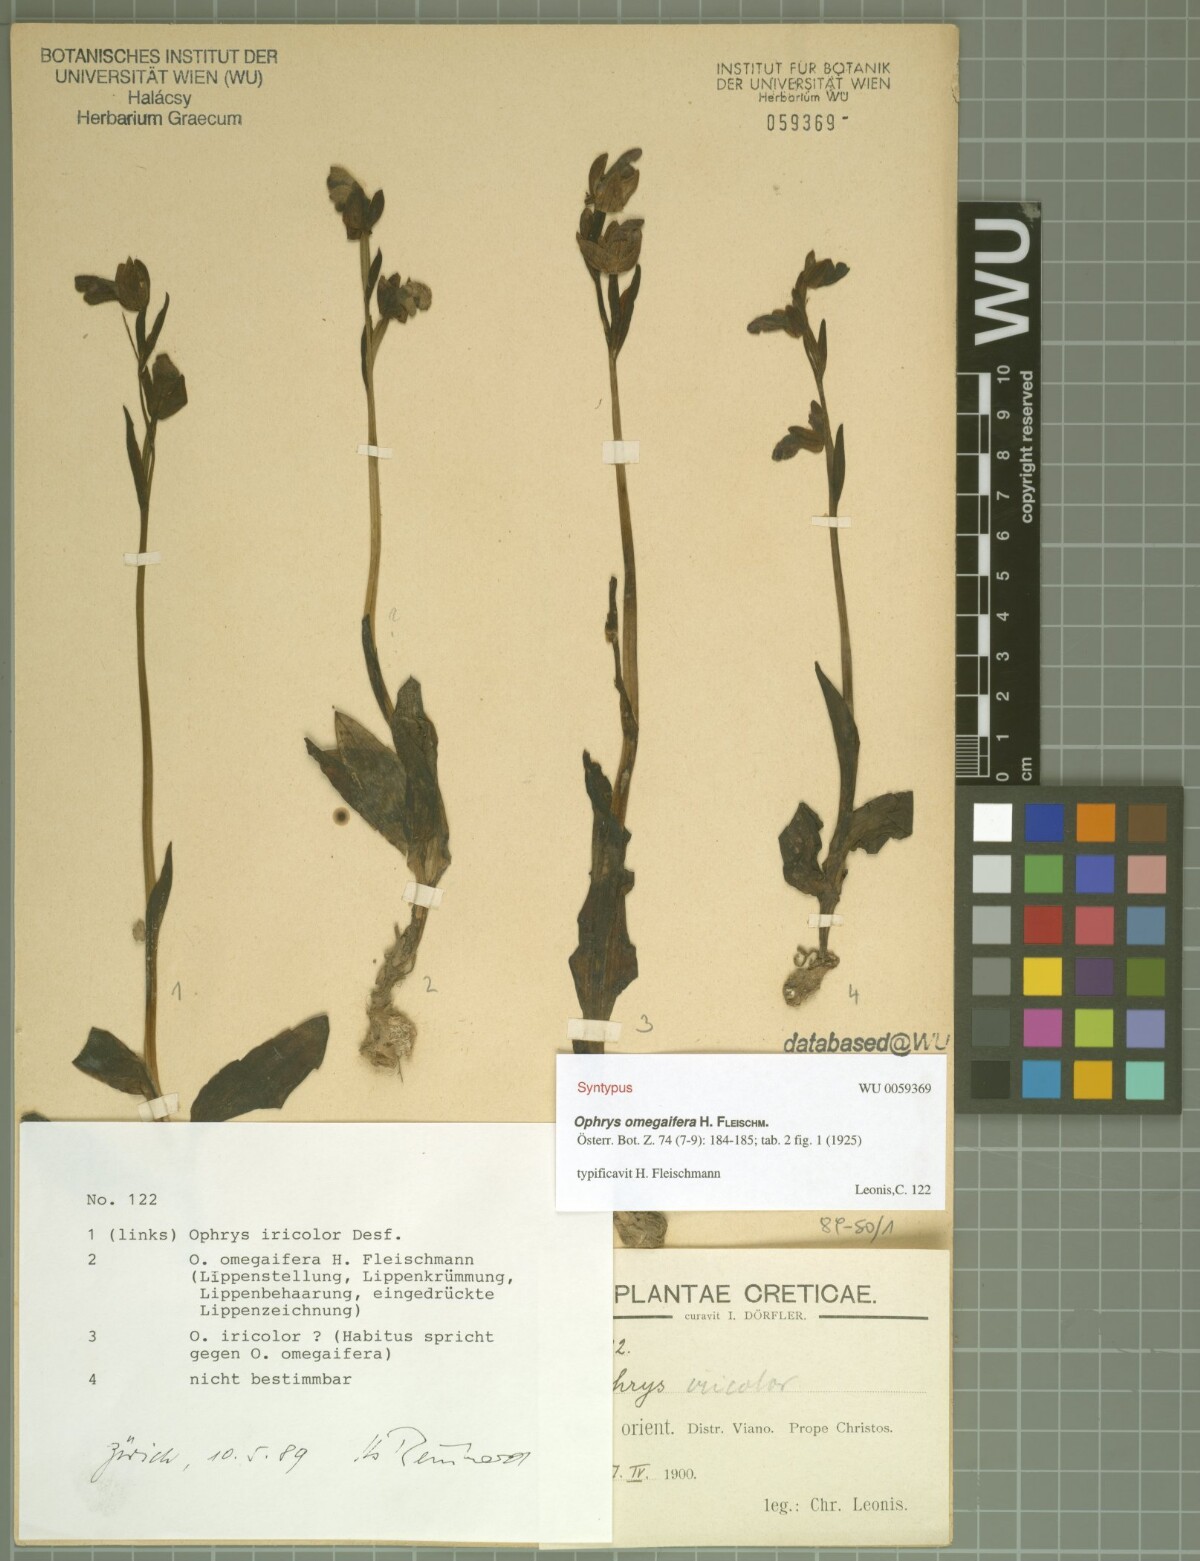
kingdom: Plantae
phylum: Tracheophyta
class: Liliopsida
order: Asparagales
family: Orchidaceae
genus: Ophrys
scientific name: Ophrys omegaifera
